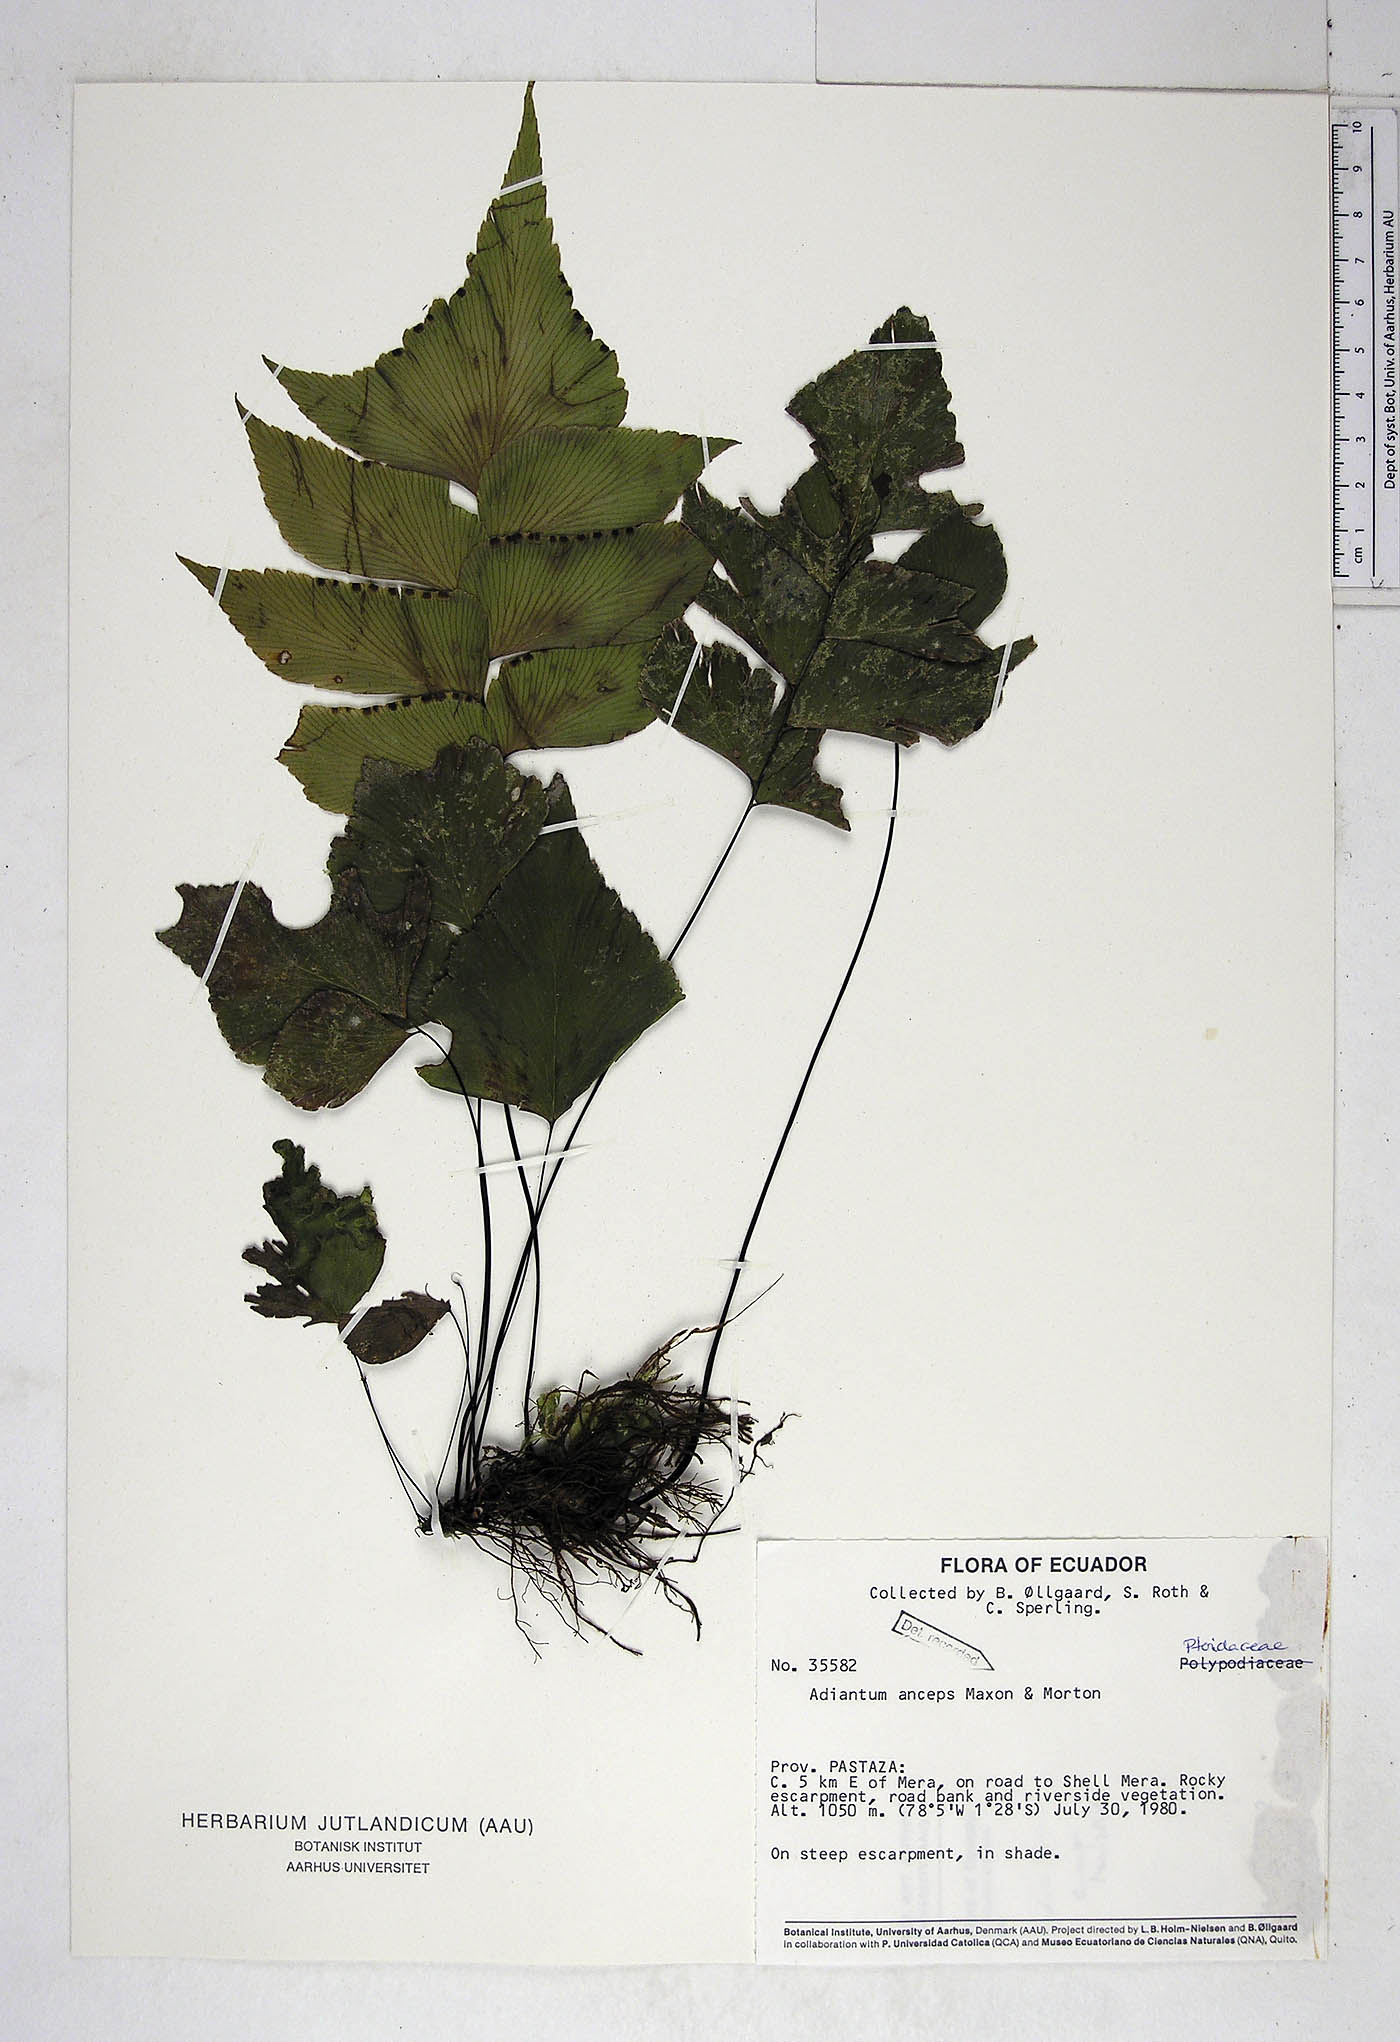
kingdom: Plantae
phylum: Tracheophyta
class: Polypodiopsida
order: Polypodiales
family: Pteridaceae
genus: Adiantum
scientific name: Adiantum mariposatum
